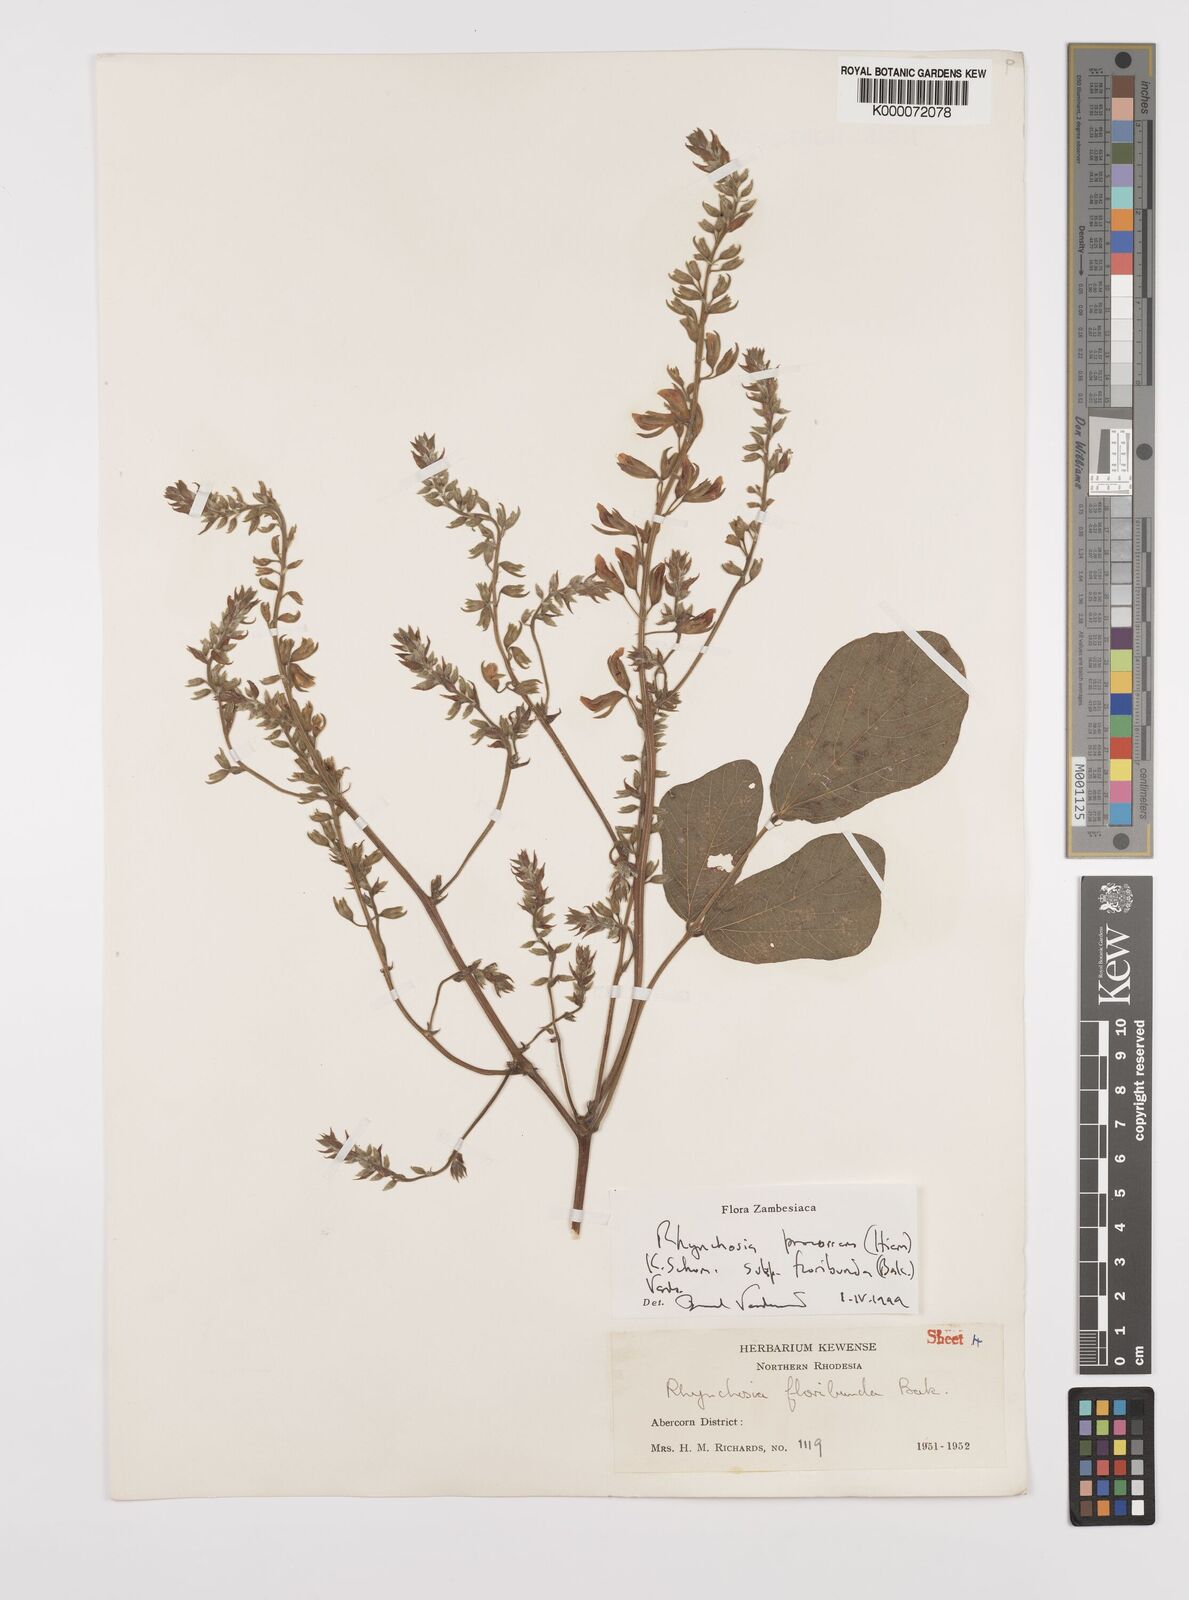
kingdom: Plantae
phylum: Tracheophyta
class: Magnoliopsida
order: Fabales
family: Fabaceae
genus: Rhynchosia
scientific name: Rhynchosia procurrens
